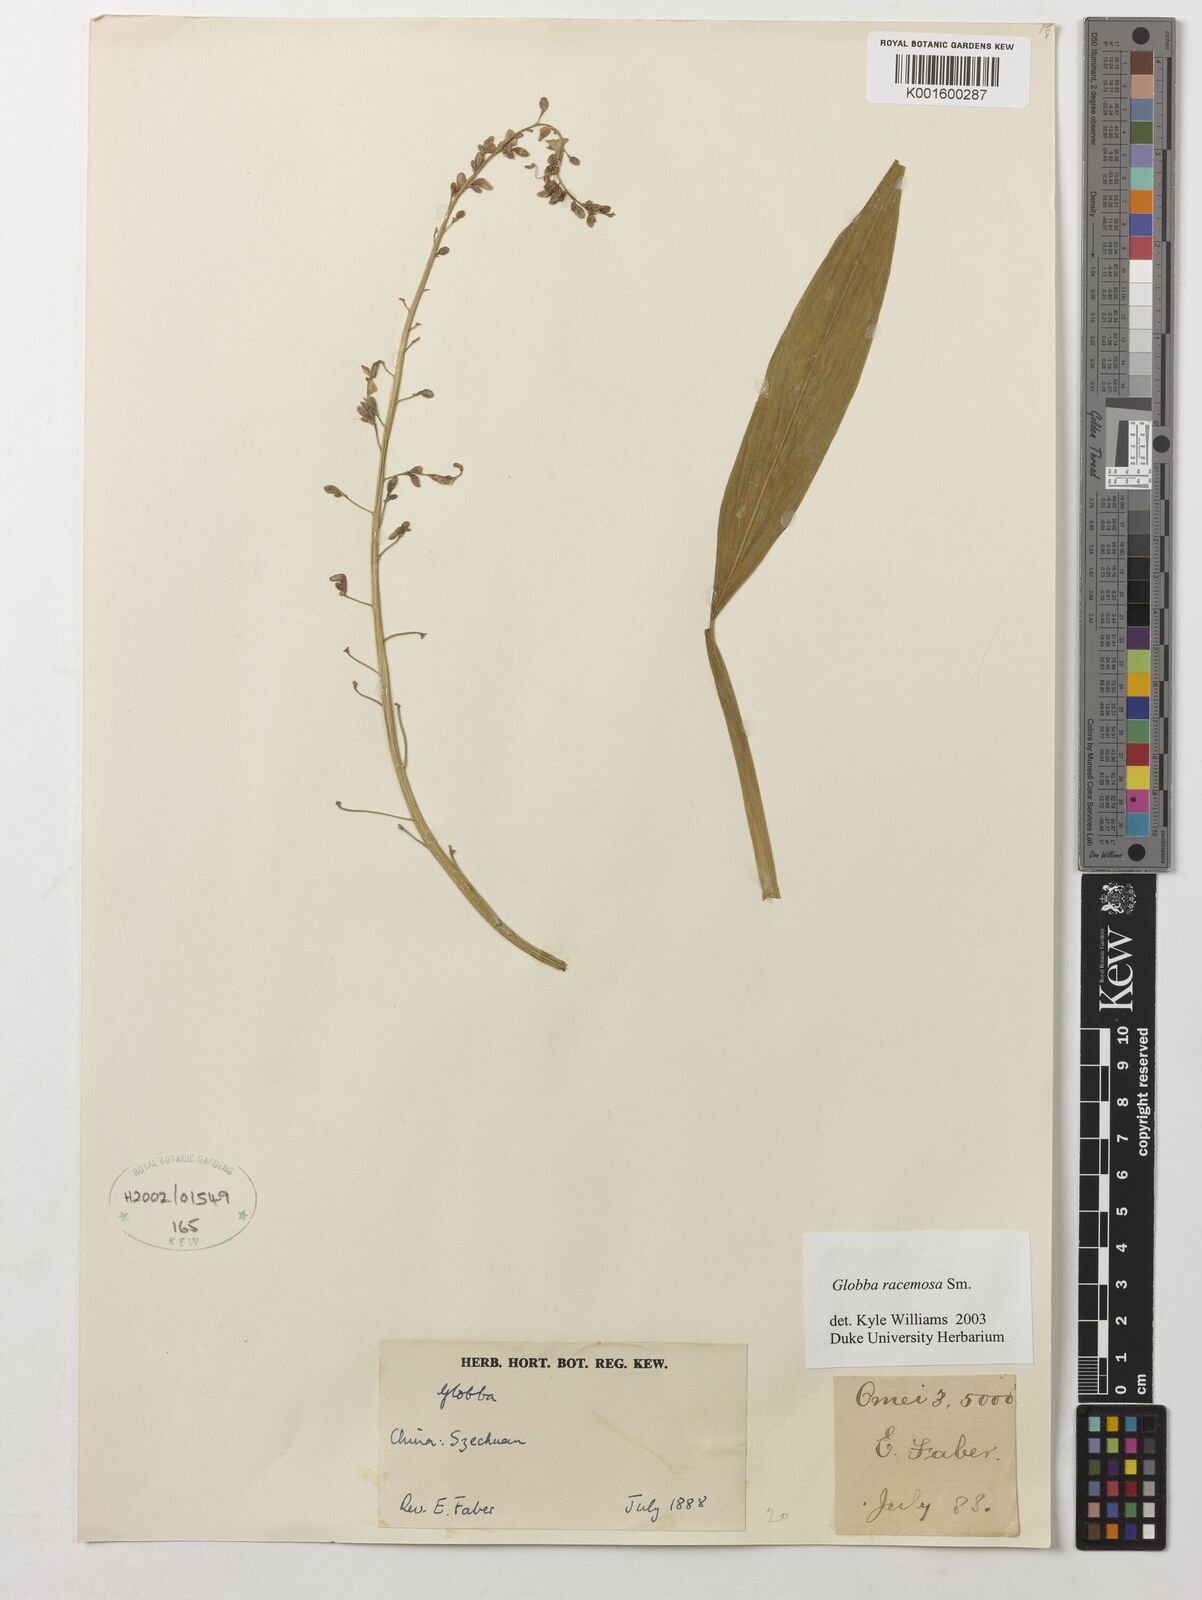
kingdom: Plantae
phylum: Tracheophyta
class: Liliopsida
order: Zingiberales
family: Zingiberaceae
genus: Globba
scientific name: Globba racemosa
